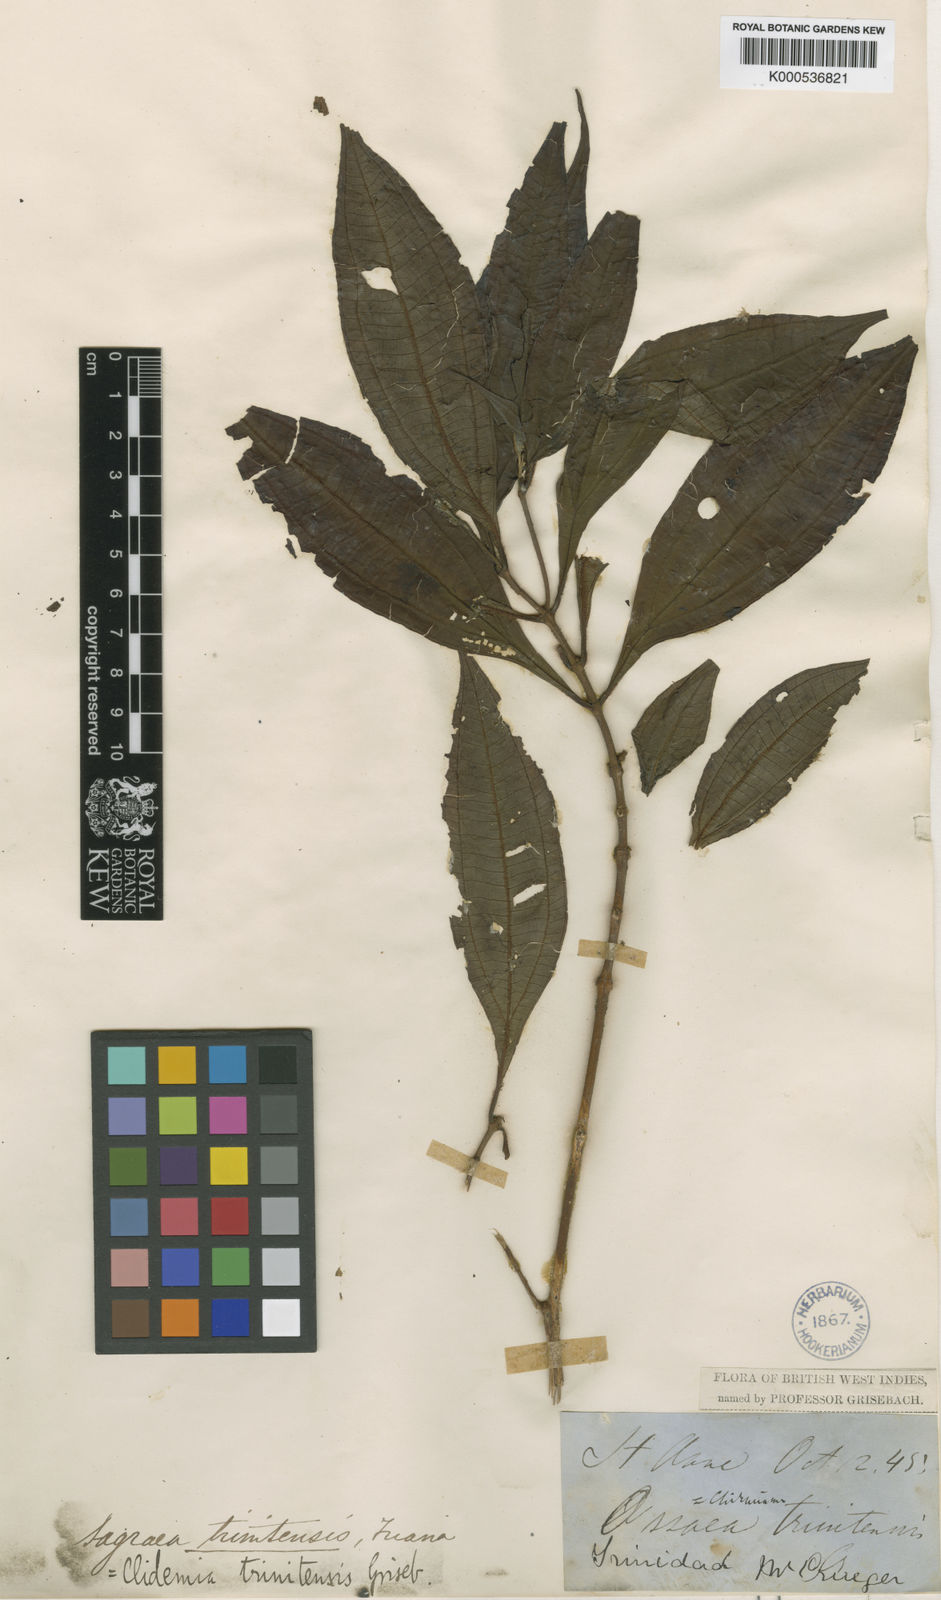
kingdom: Plantae
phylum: Tracheophyta
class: Magnoliopsida
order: Myrtales
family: Melastomataceae
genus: Miconia
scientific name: Miconia trinitensis
